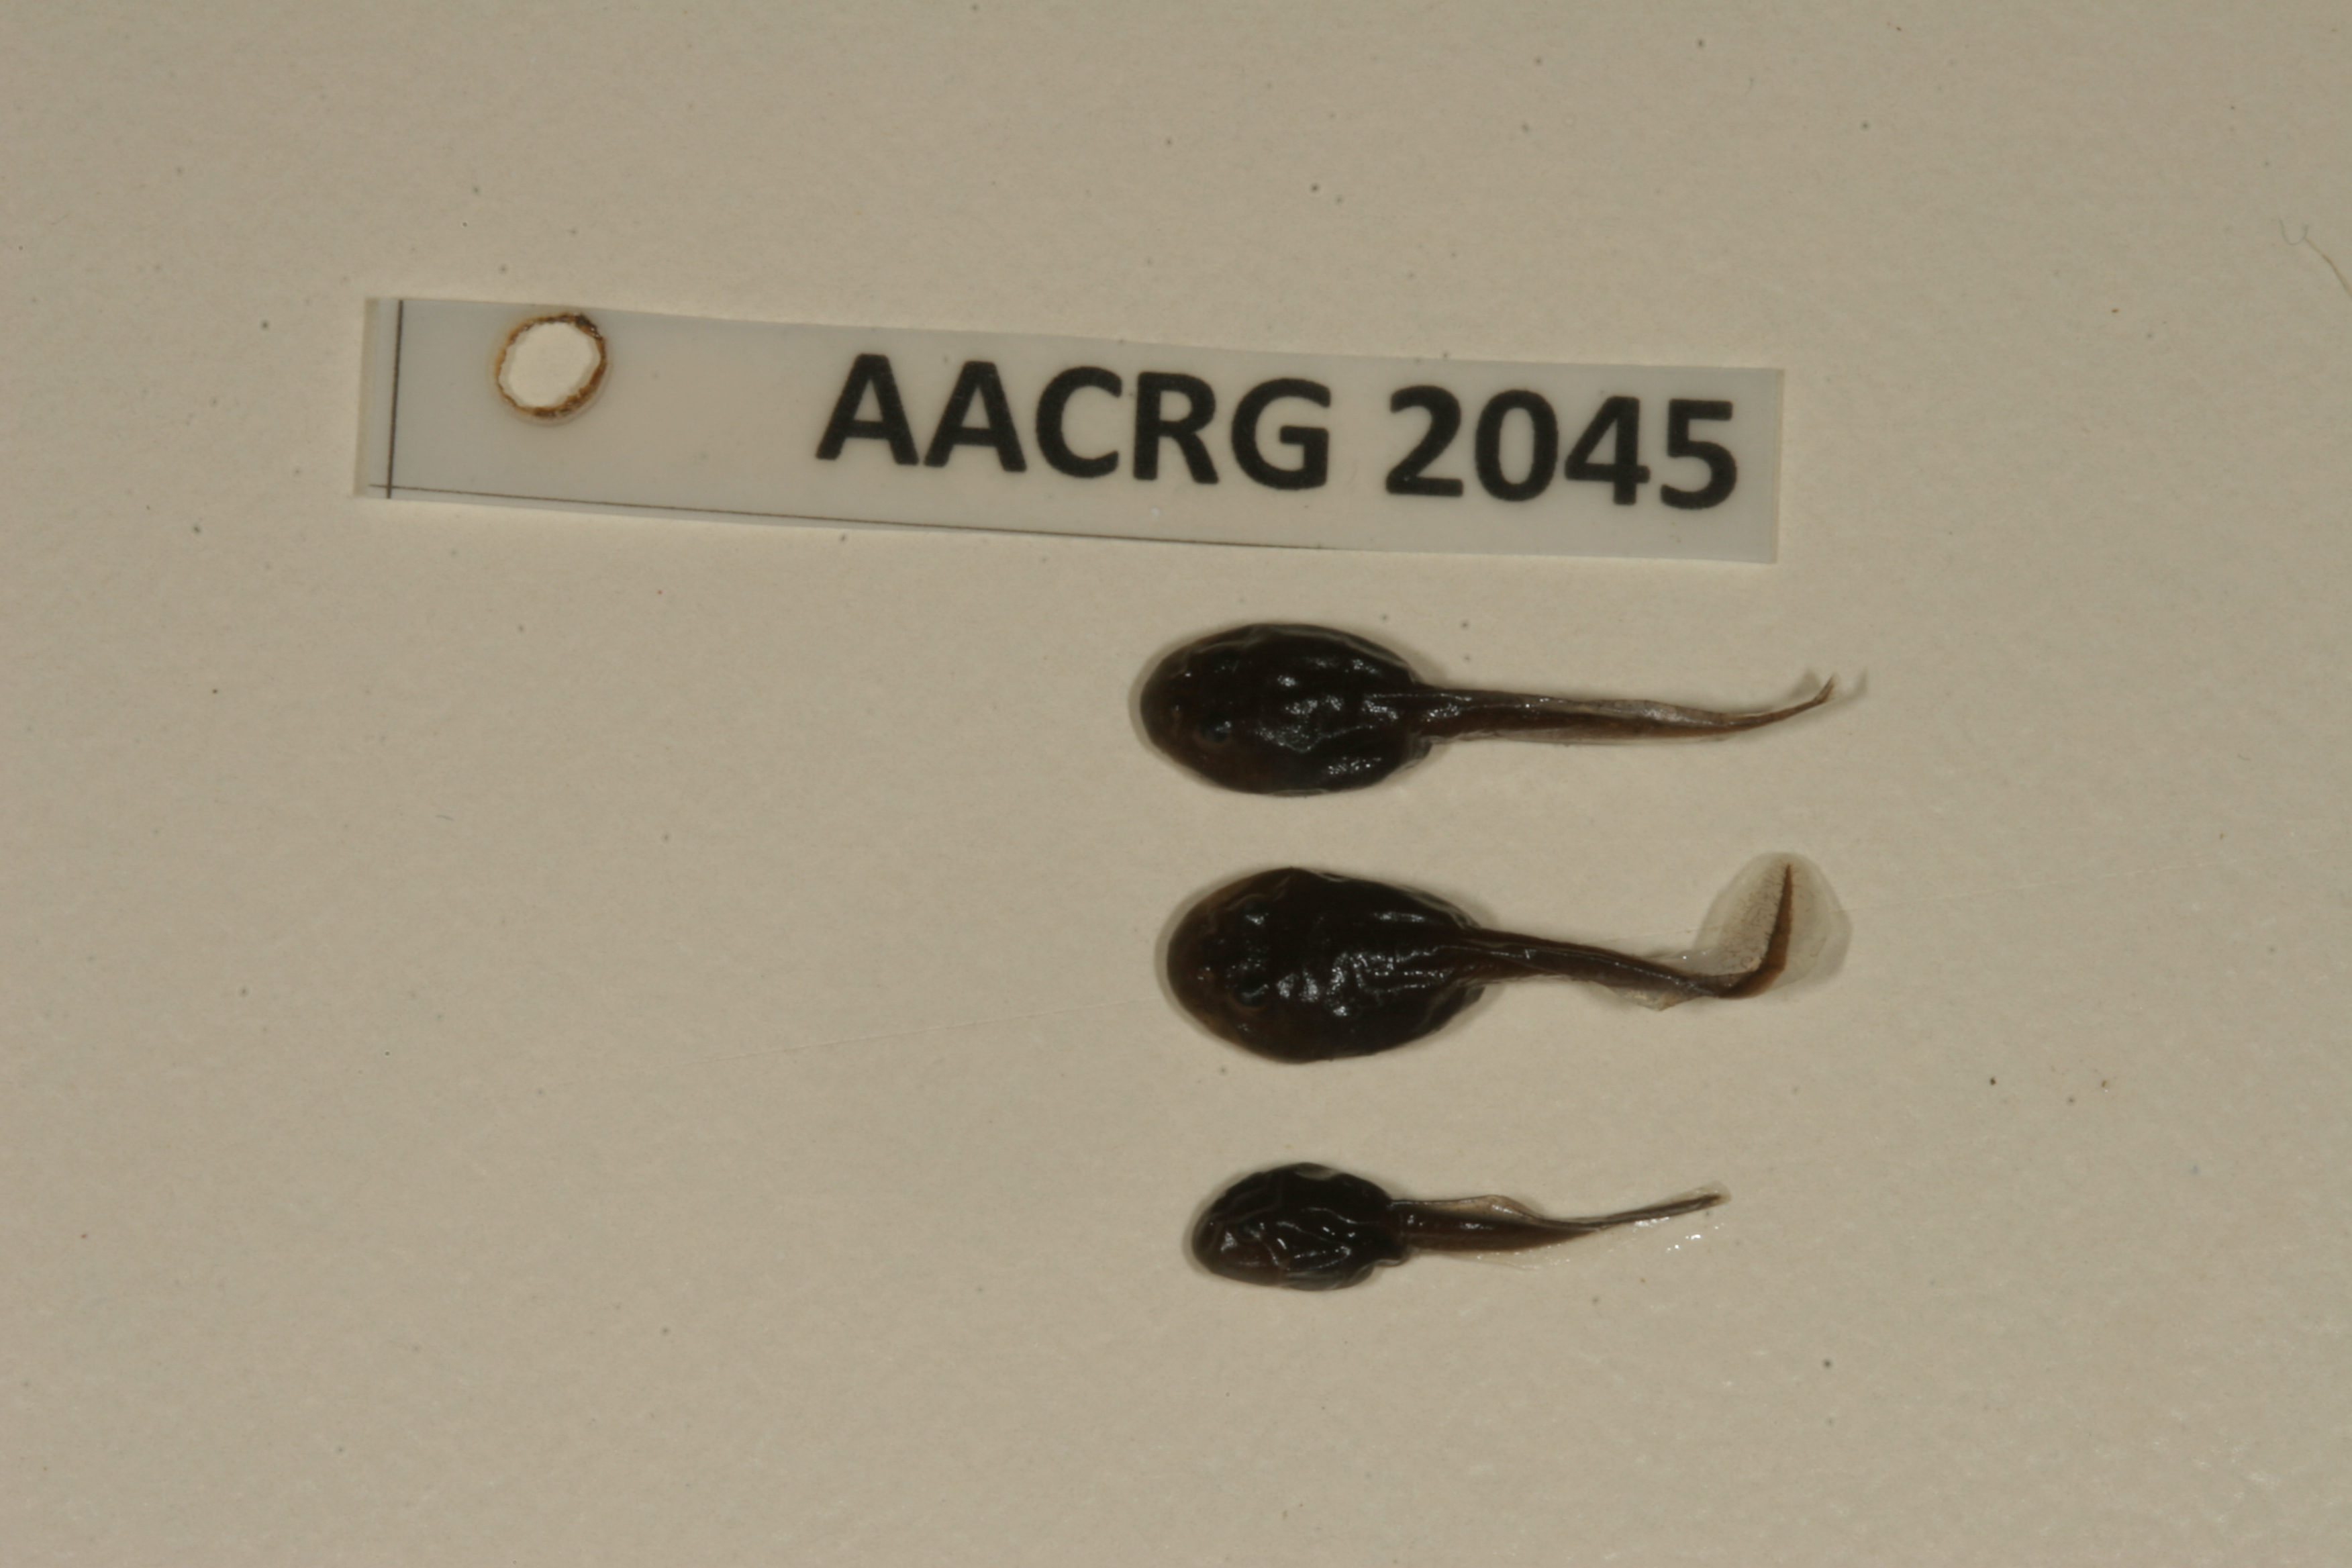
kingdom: Animalia
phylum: Chordata
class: Amphibia
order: Anura
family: Bufonidae
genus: Sclerophrys
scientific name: Sclerophrys gutturalis
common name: African common toad
